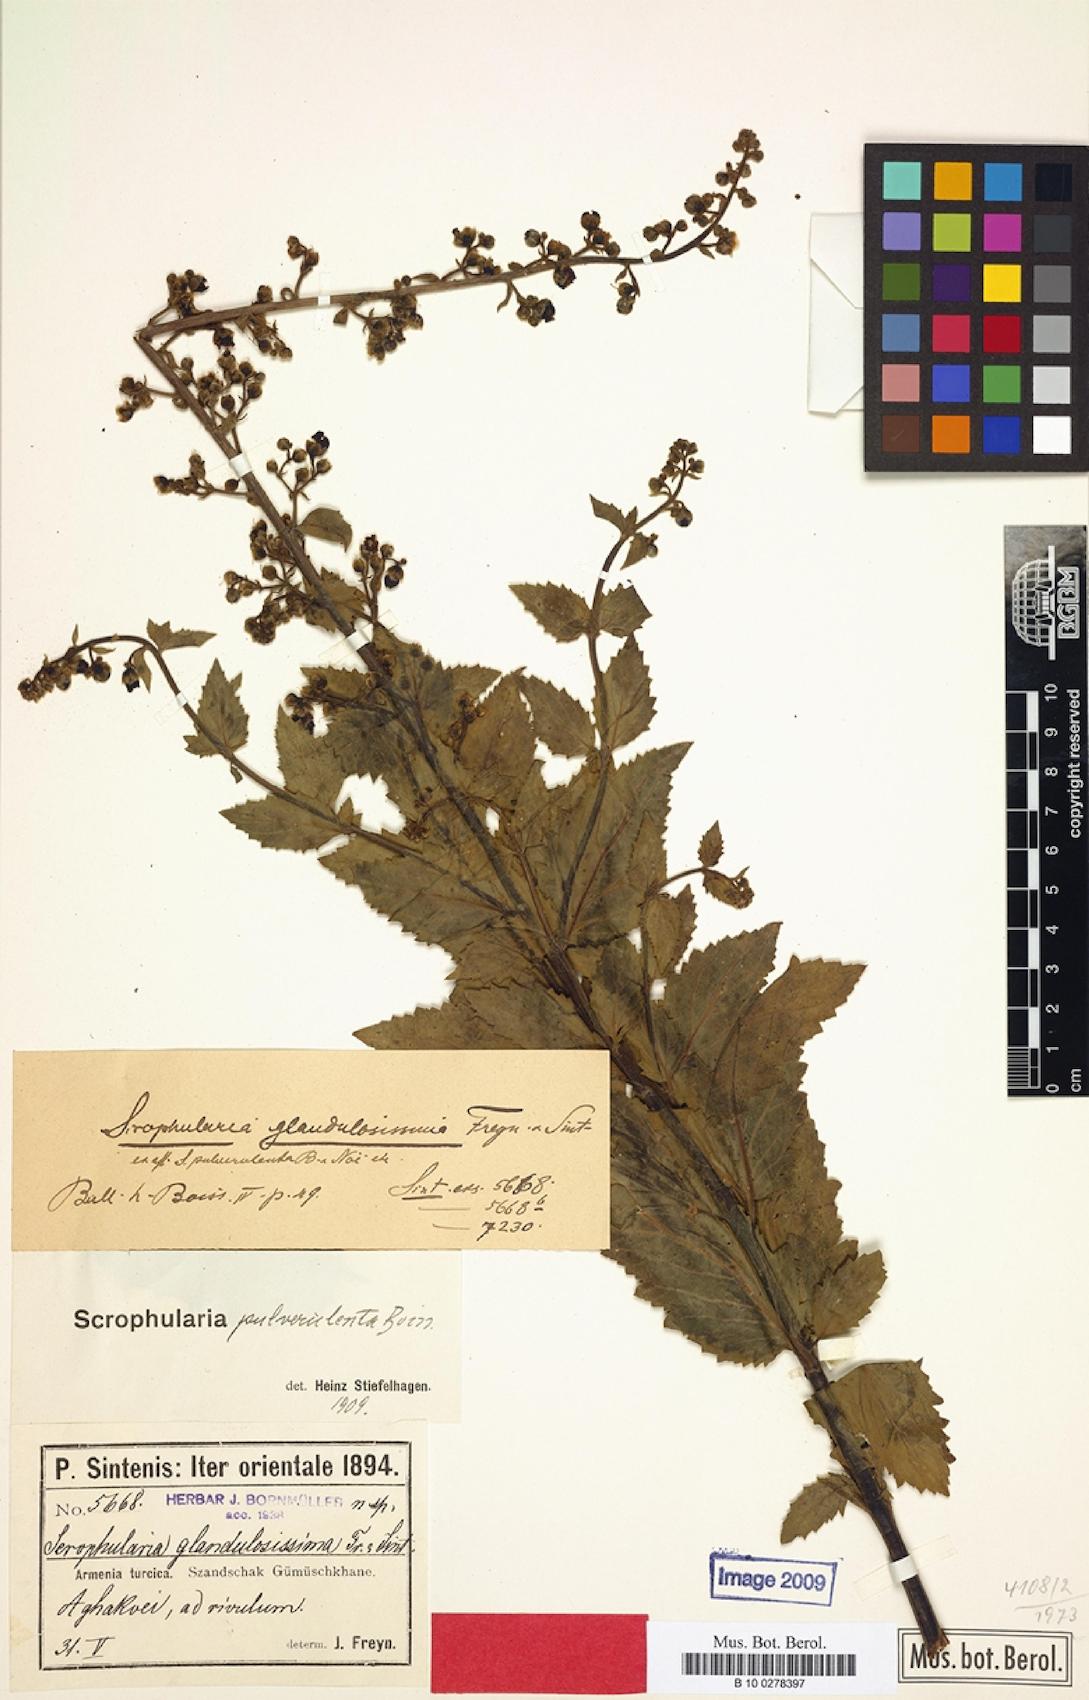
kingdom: Plantae
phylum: Tracheophyta
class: Magnoliopsida
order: Lamiales
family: Scrophulariaceae
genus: Scrophularia
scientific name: Scrophularia pulverulenta
